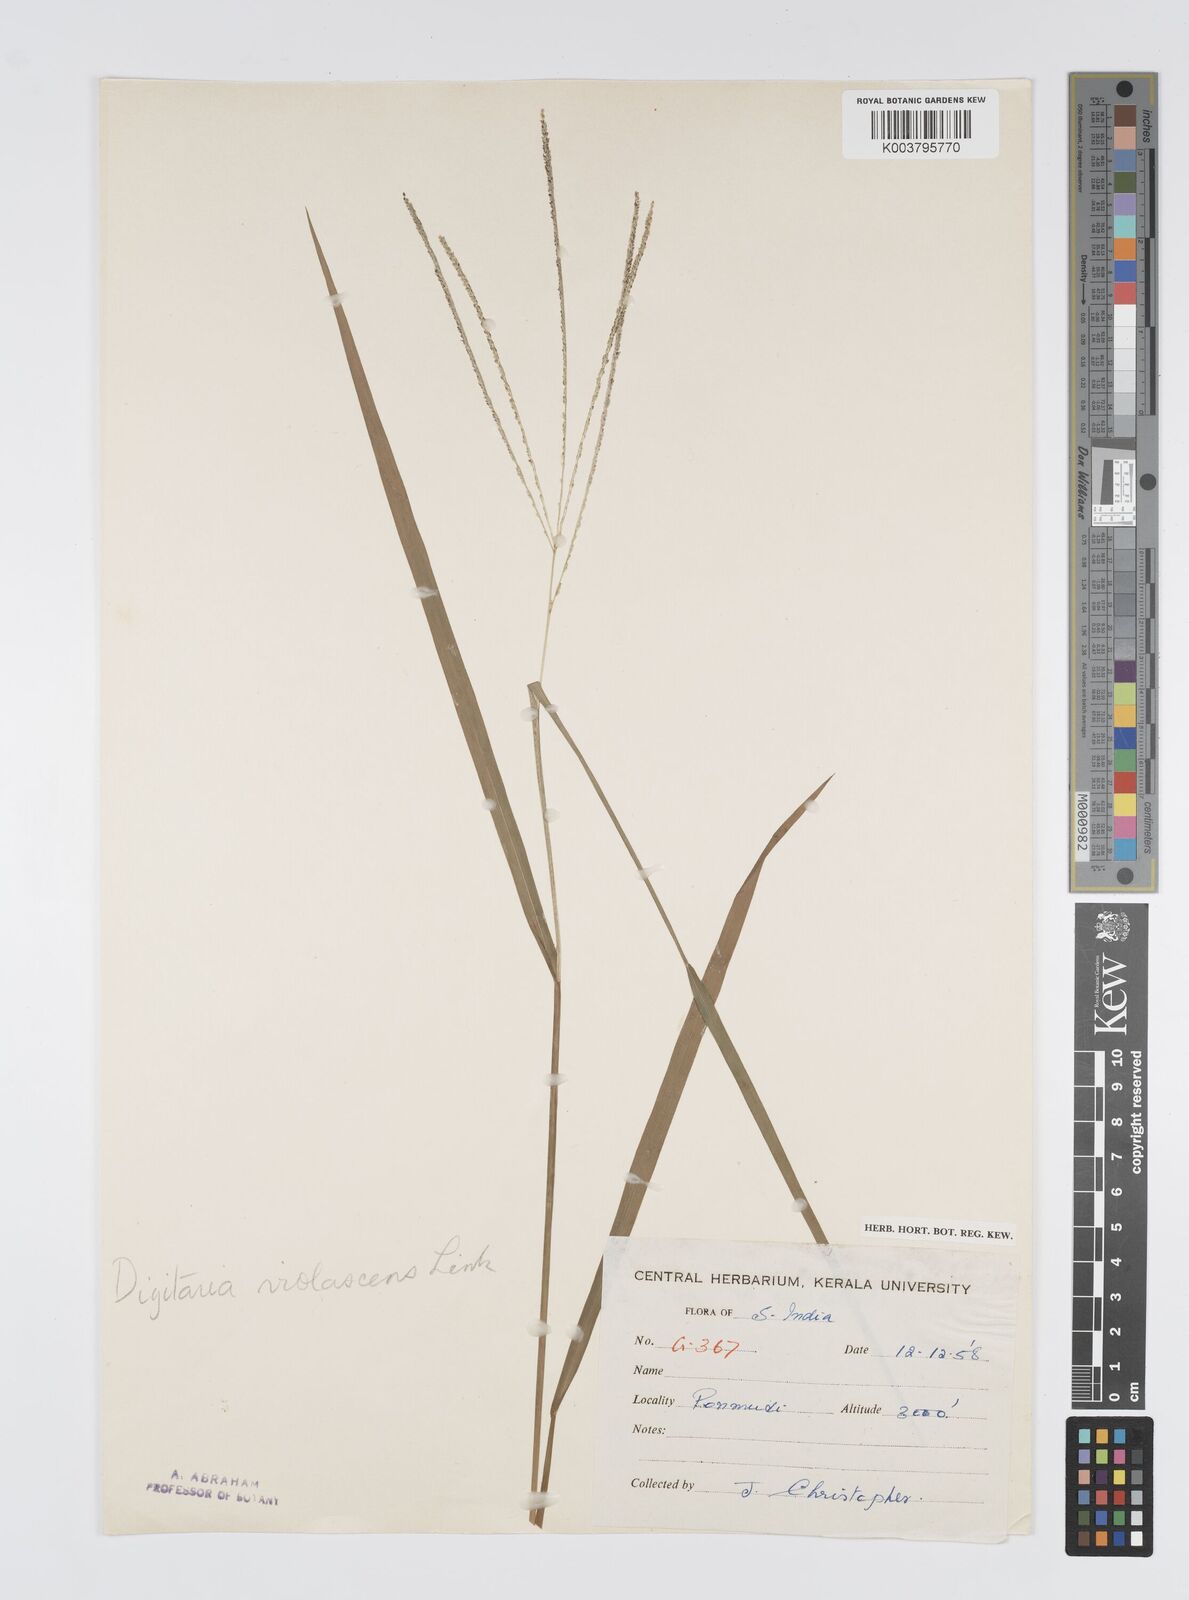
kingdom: Plantae
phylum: Tracheophyta
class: Liliopsida
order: Poales
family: Poaceae
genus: Digitaria
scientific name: Digitaria violascens
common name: Violet crabgrass
